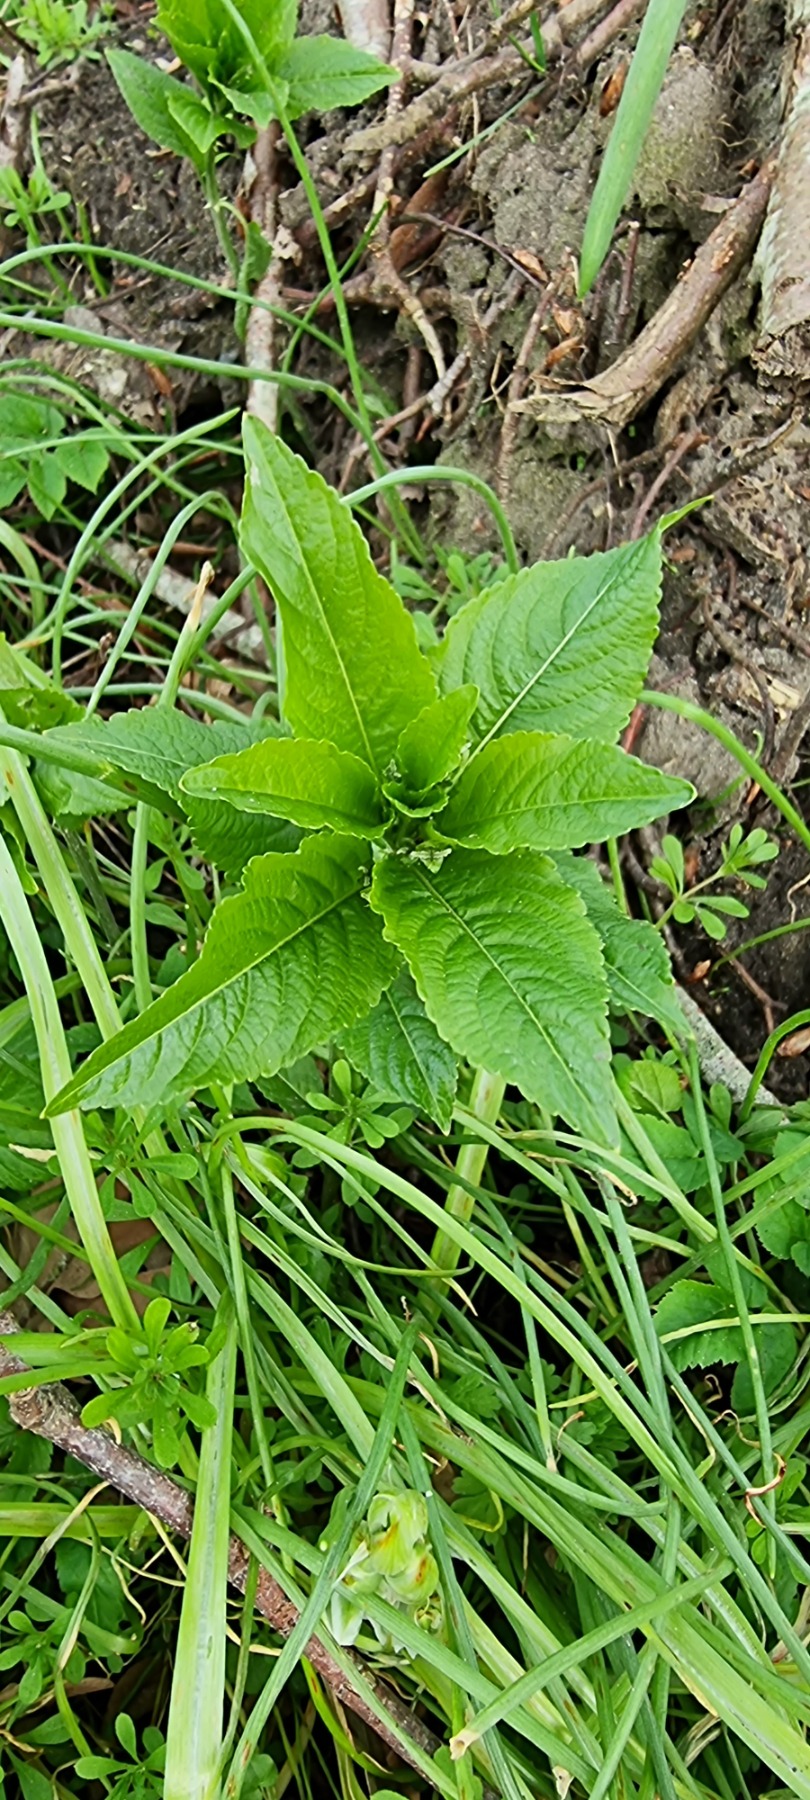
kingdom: Plantae
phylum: Tracheophyta
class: Magnoliopsida
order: Malpighiales
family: Euphorbiaceae
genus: Mercurialis
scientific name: Mercurialis perennis
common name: Almindelig bingelurt
